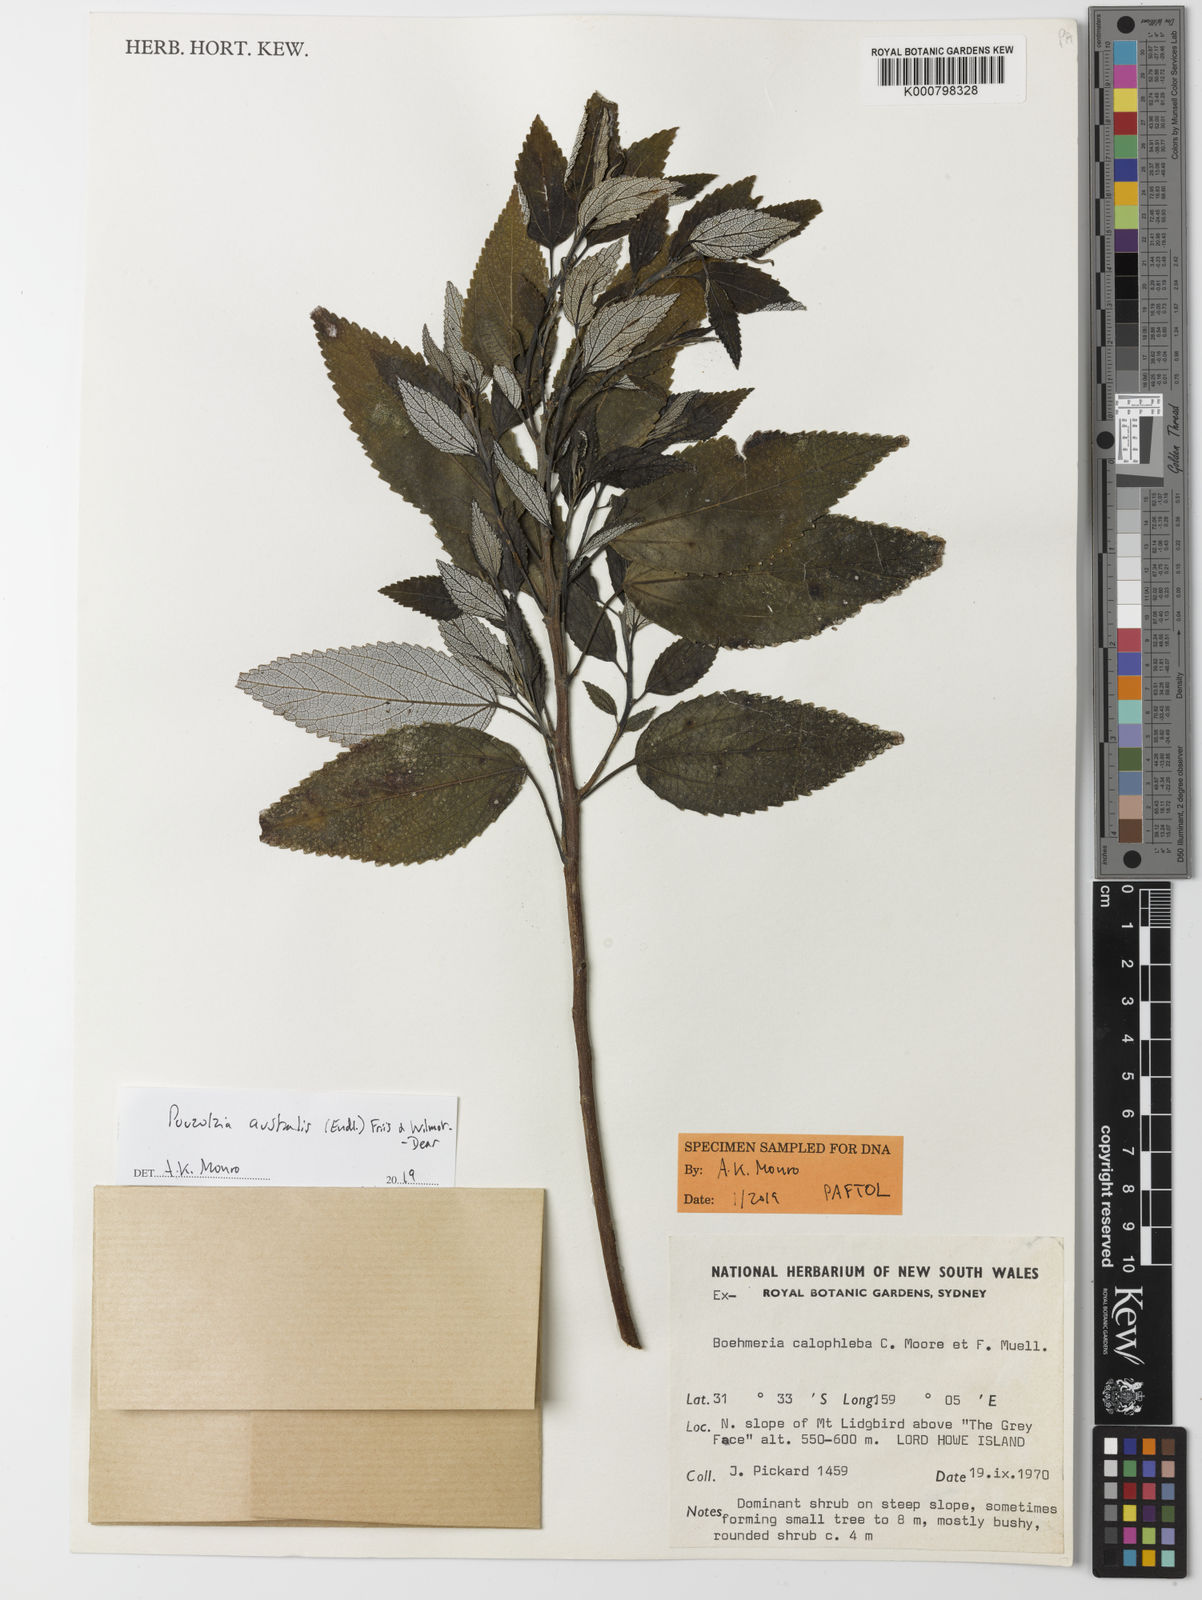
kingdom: Plantae
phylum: Tracheophyta
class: Magnoliopsida
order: Rosales
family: Urticaceae
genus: Pouzolzia
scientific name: Pouzolzia australis
